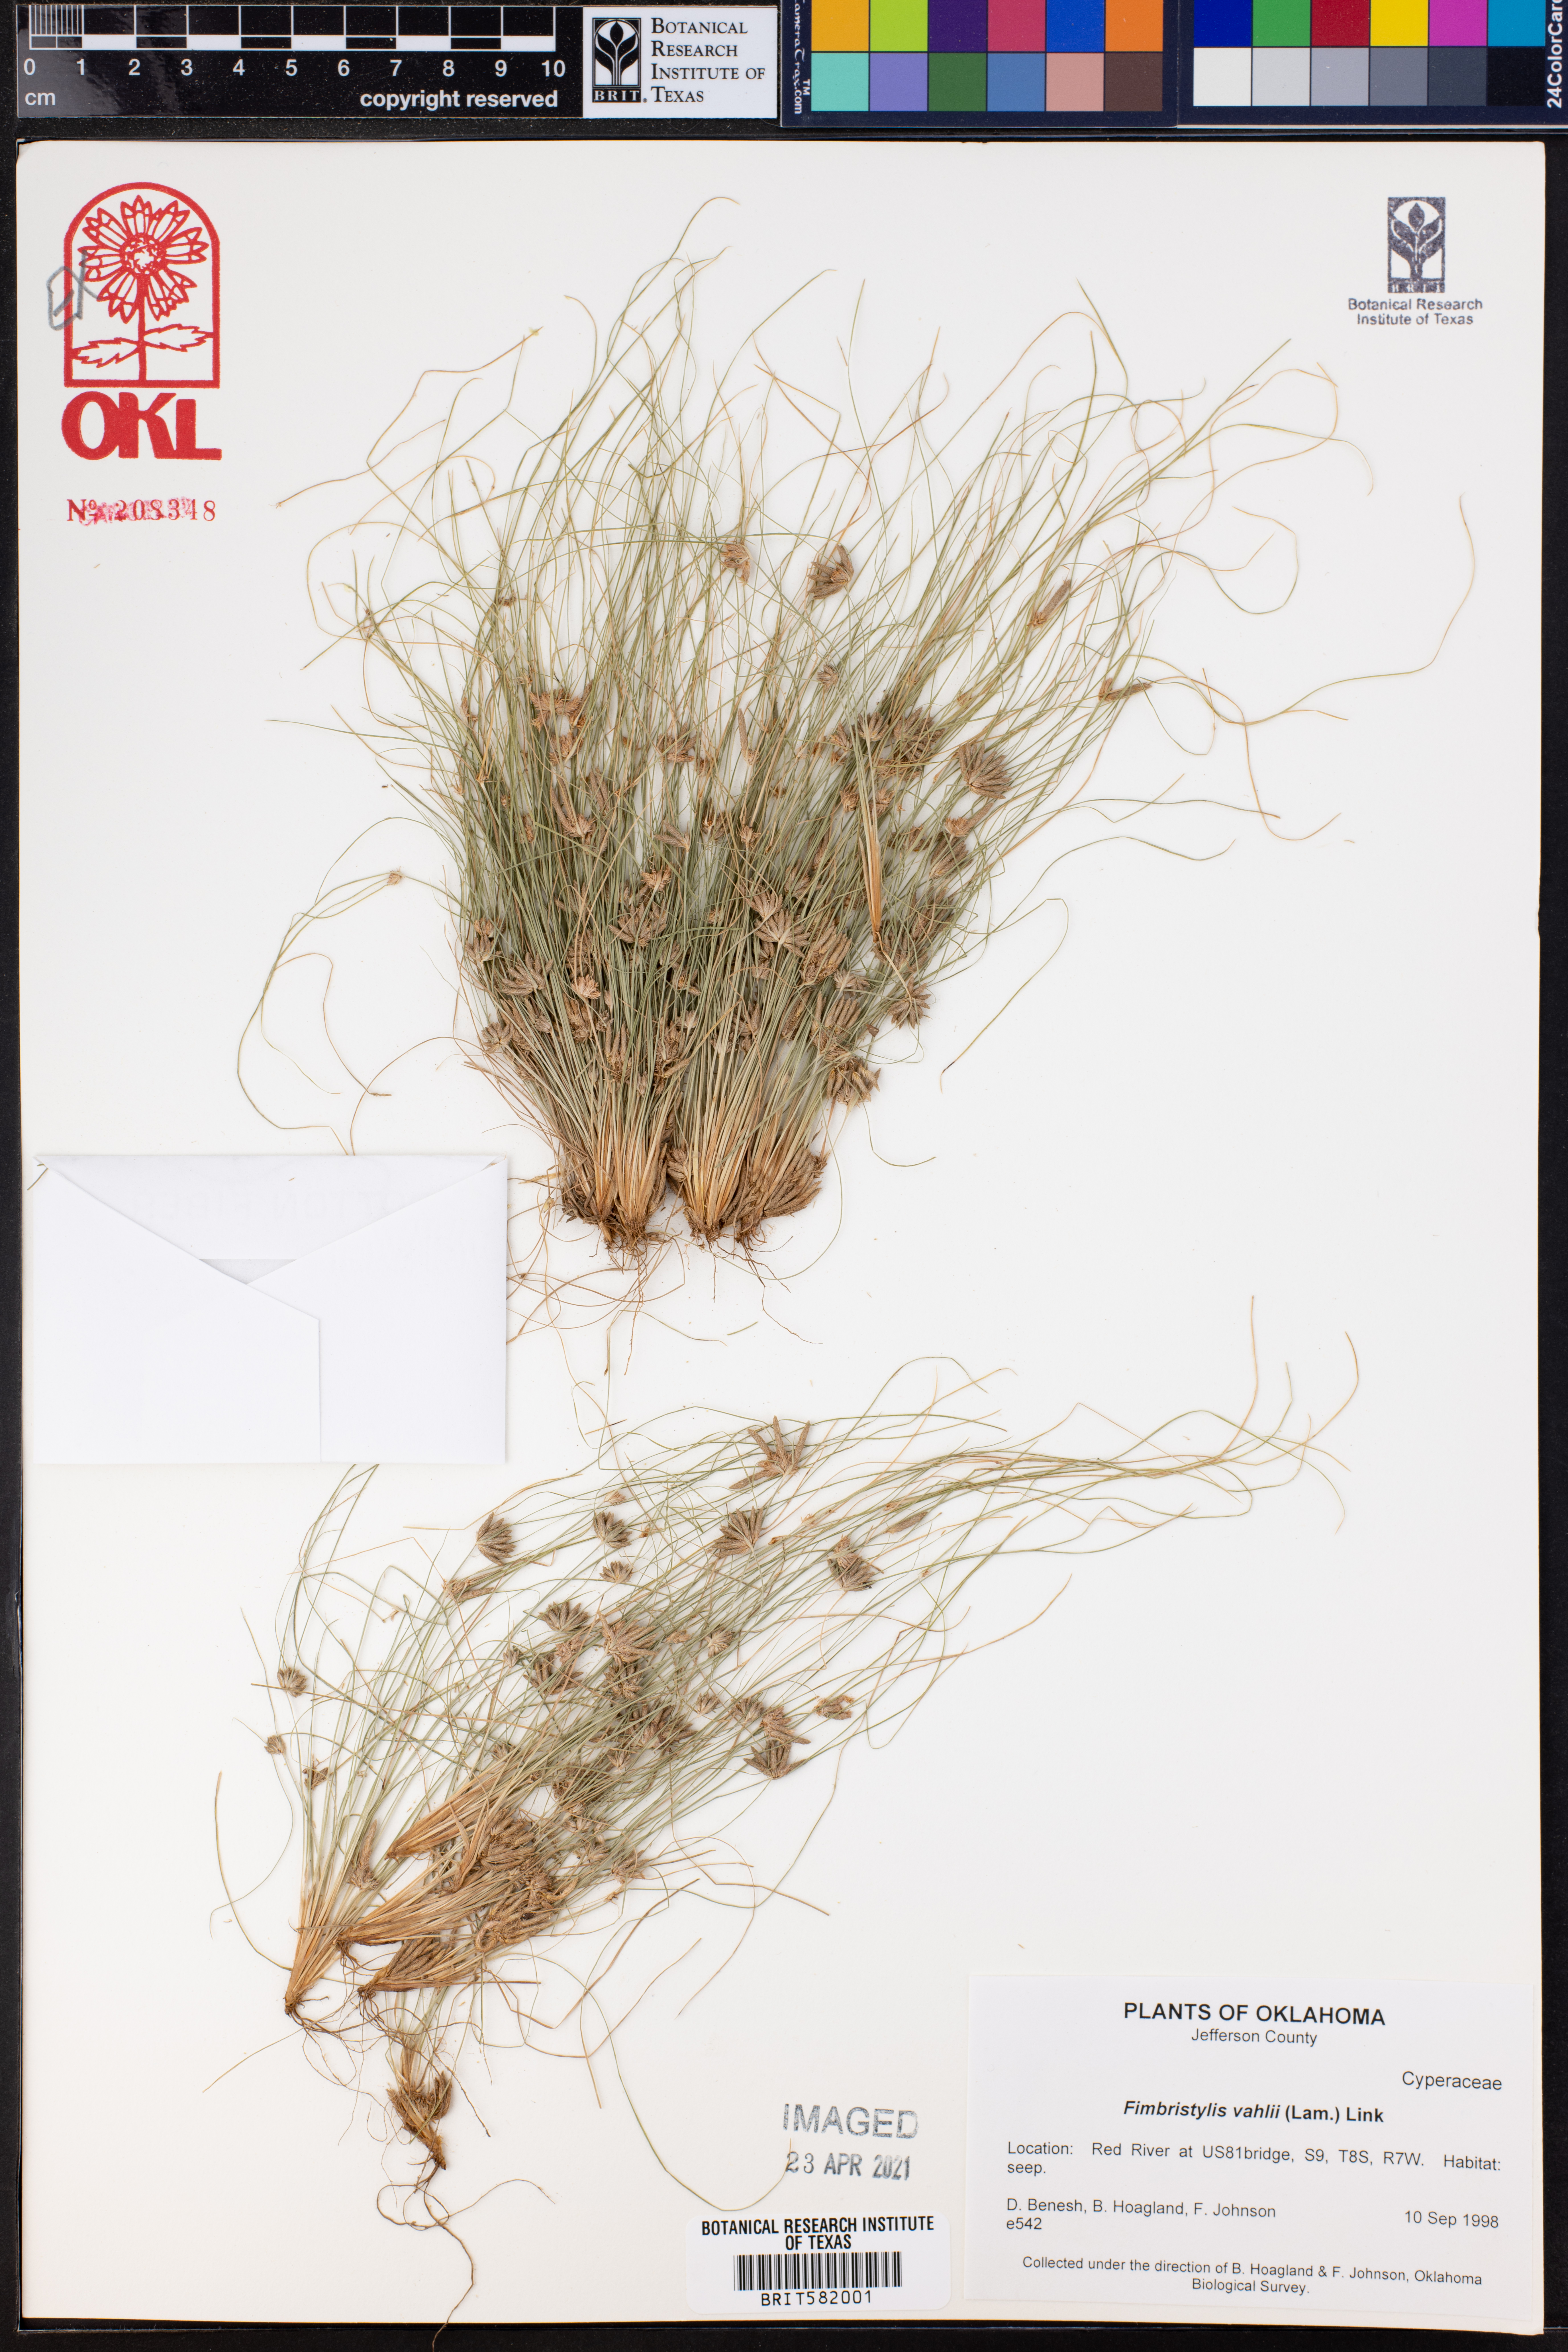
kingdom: Plantae
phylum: Tracheophyta
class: Liliopsida
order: Poales
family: Cyperaceae
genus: Fimbristylis
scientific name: Fimbristylis vahlii
